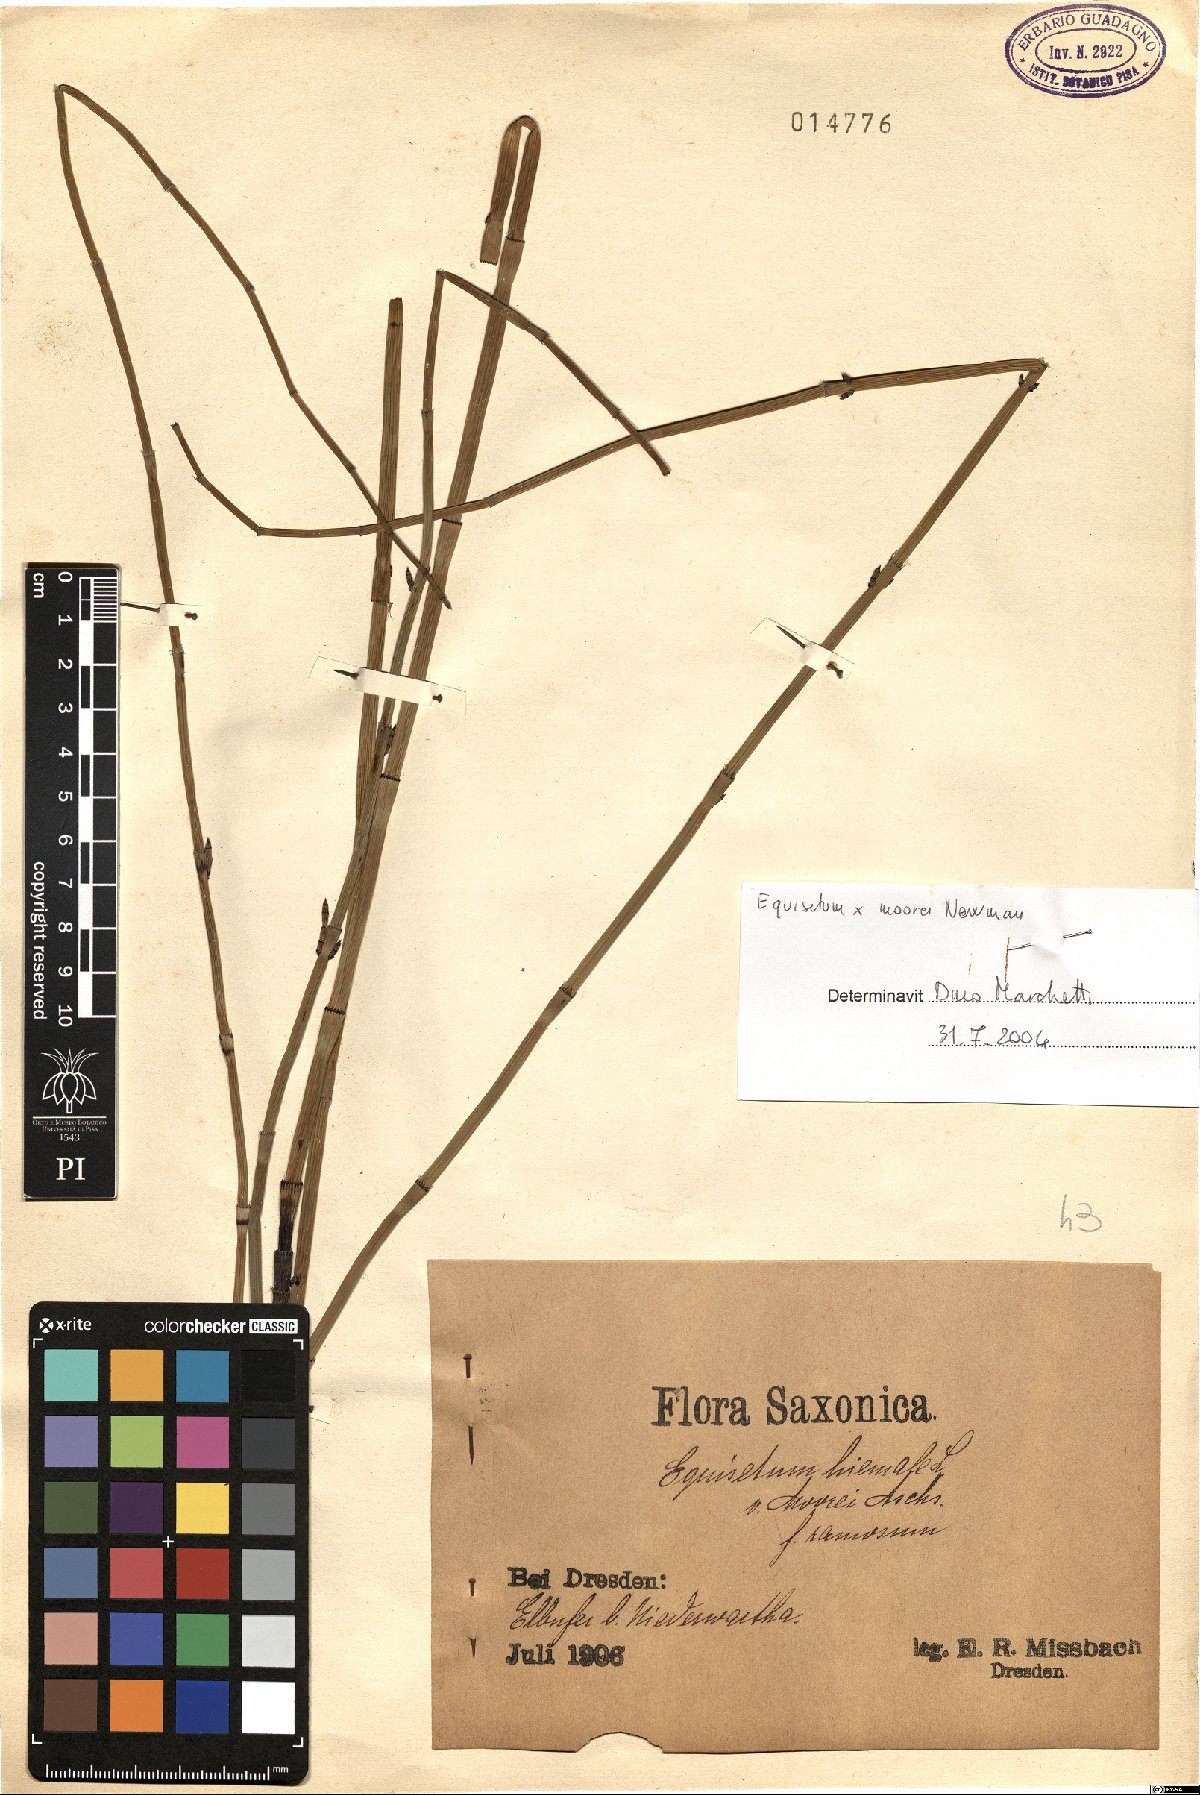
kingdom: Plantae
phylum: Tracheophyta
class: Polypodiopsida
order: Equisetales
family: Equisetaceae
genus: Equisetum
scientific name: Equisetum moorei
